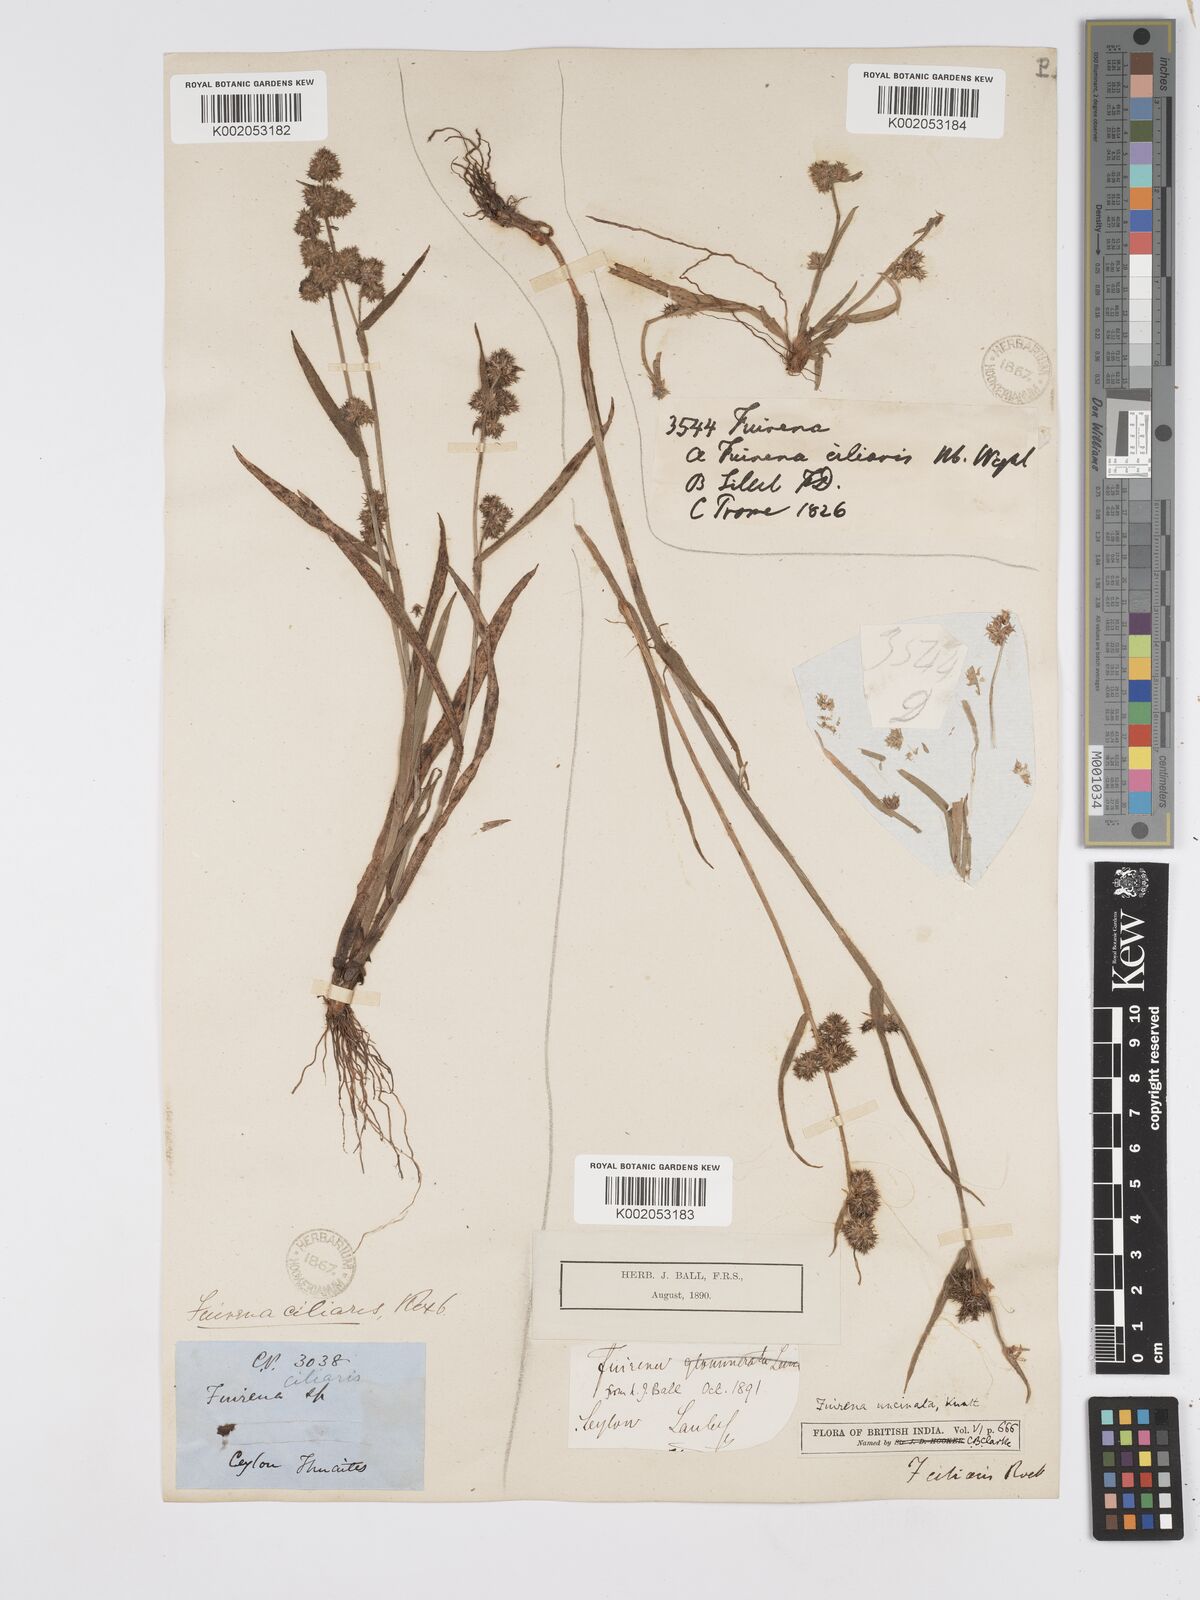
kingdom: Plantae
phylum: Tracheophyta
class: Liliopsida
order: Poales
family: Cyperaceae
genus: Fuirena
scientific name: Fuirena uncinata
